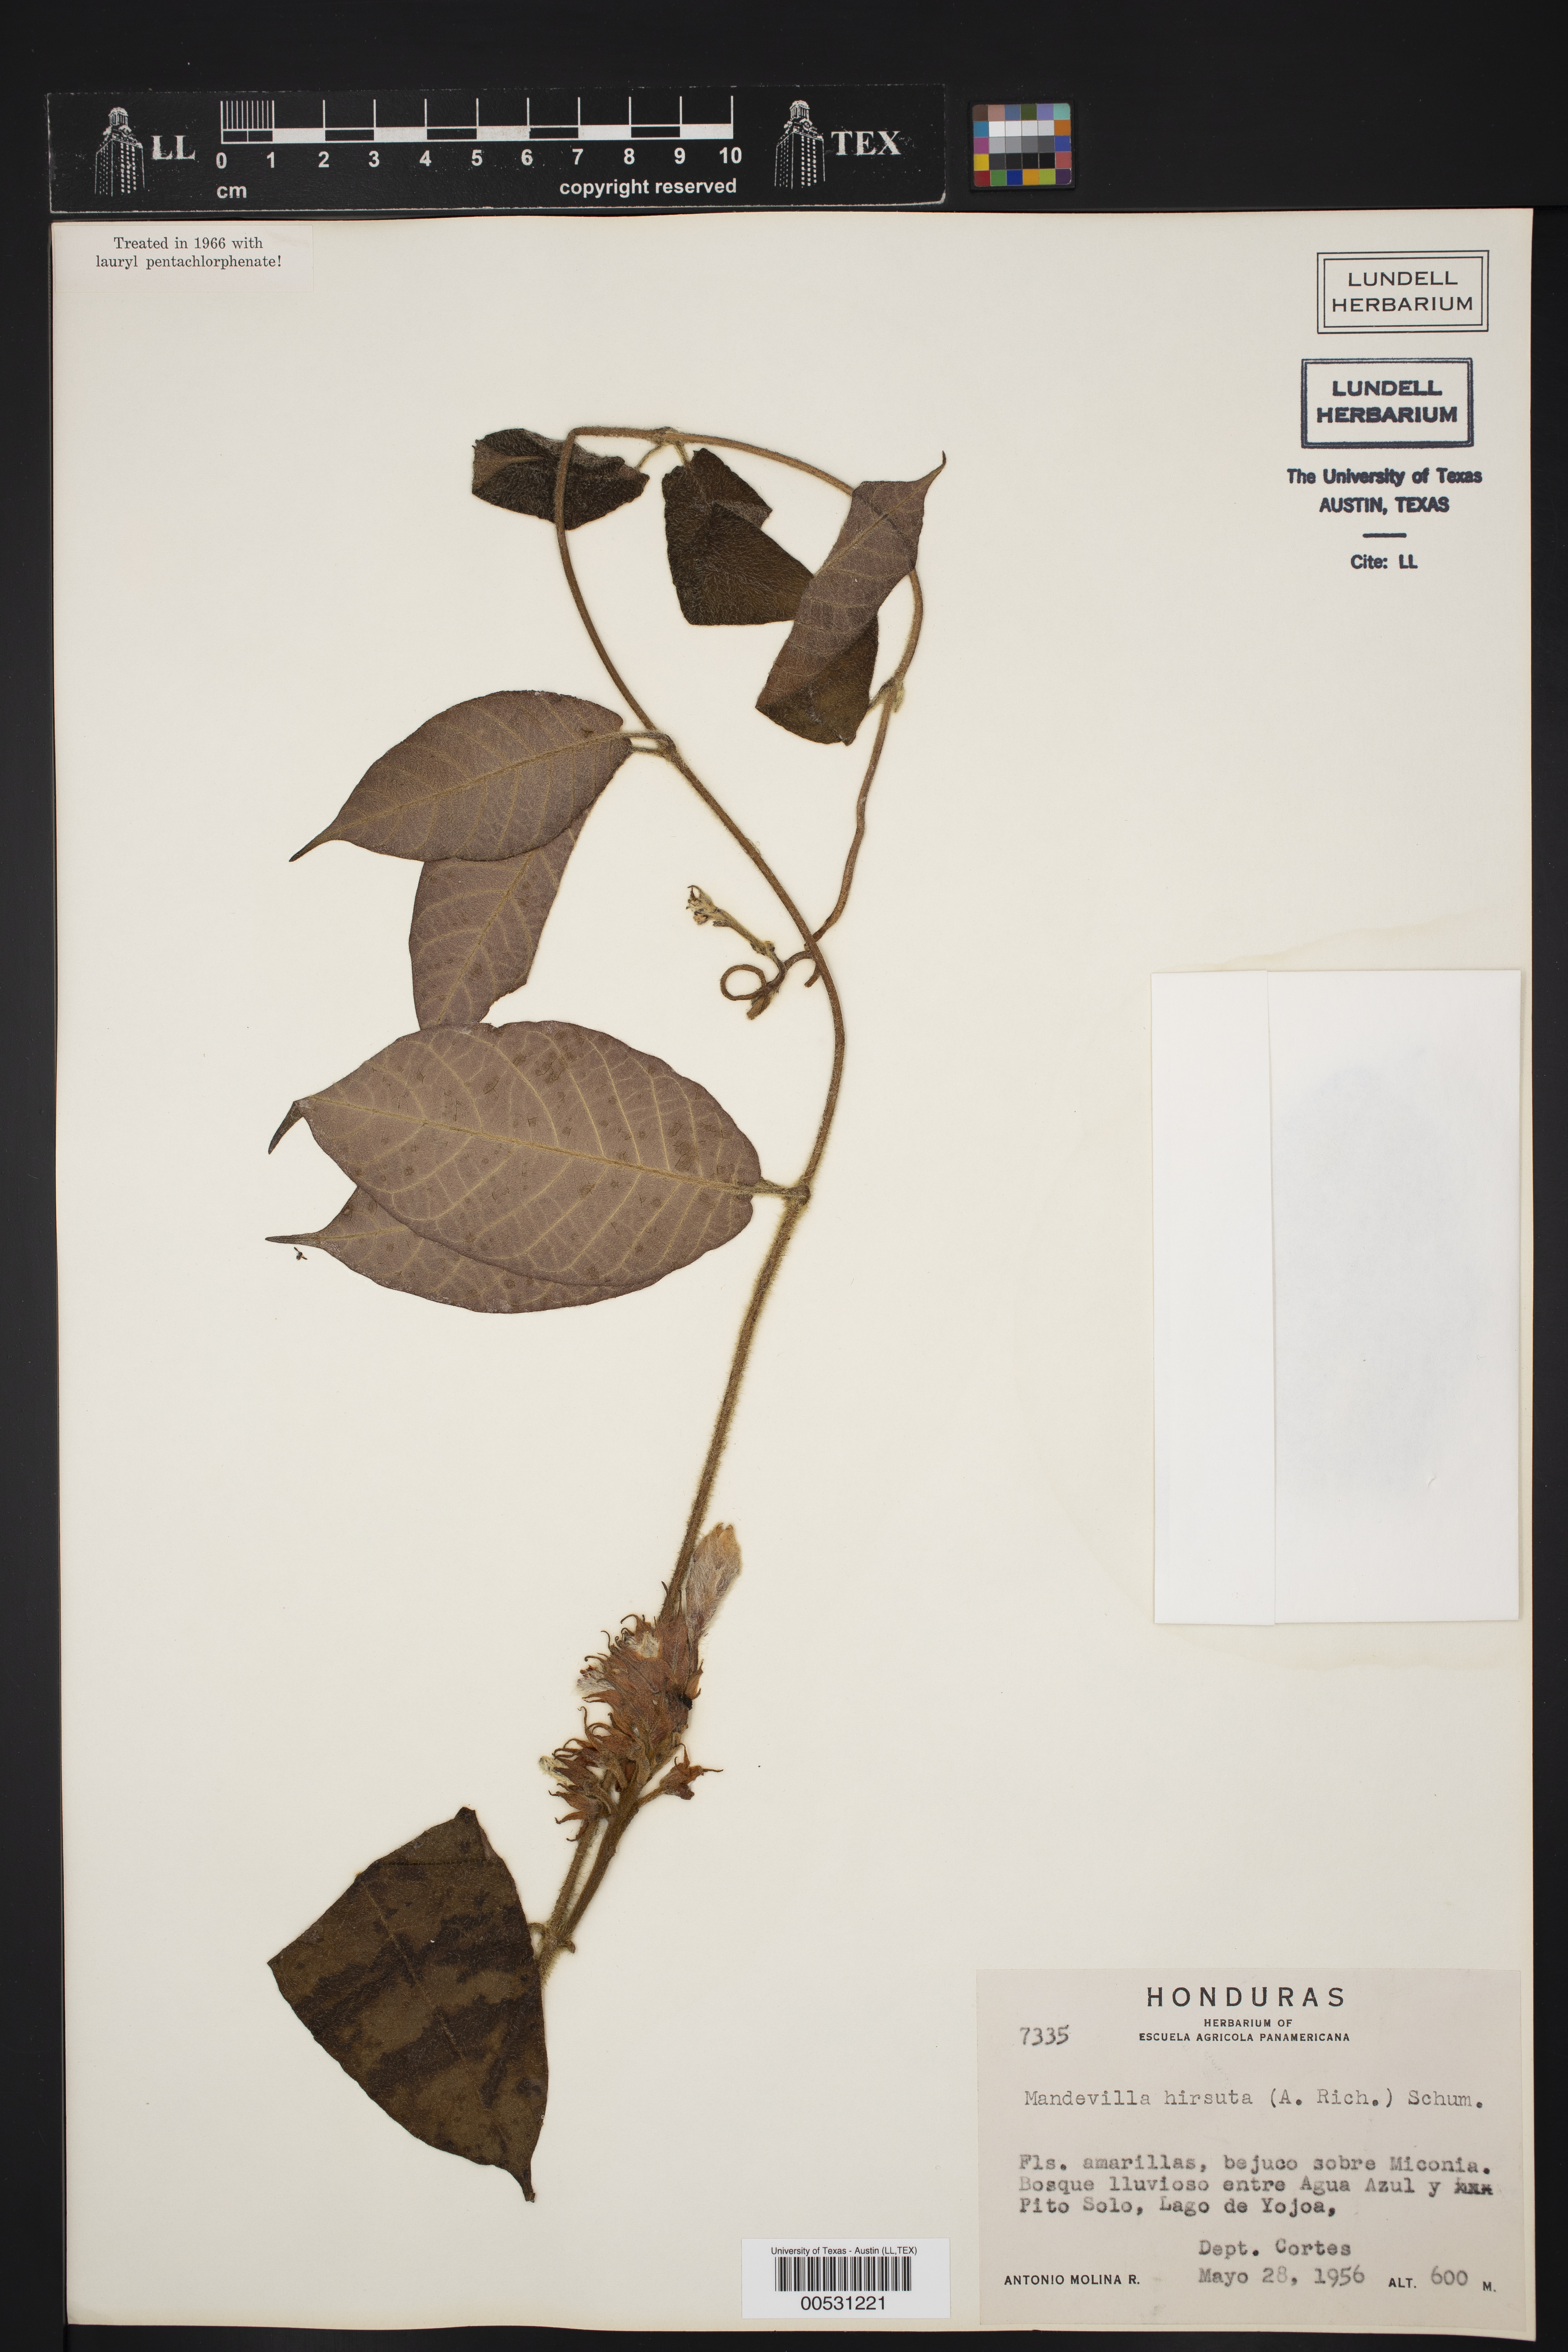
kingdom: Plantae
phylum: Tracheophyta
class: Magnoliopsida
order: Gentianales
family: Apocynaceae
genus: Mandevilla
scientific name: Mandevilla hirsuta
